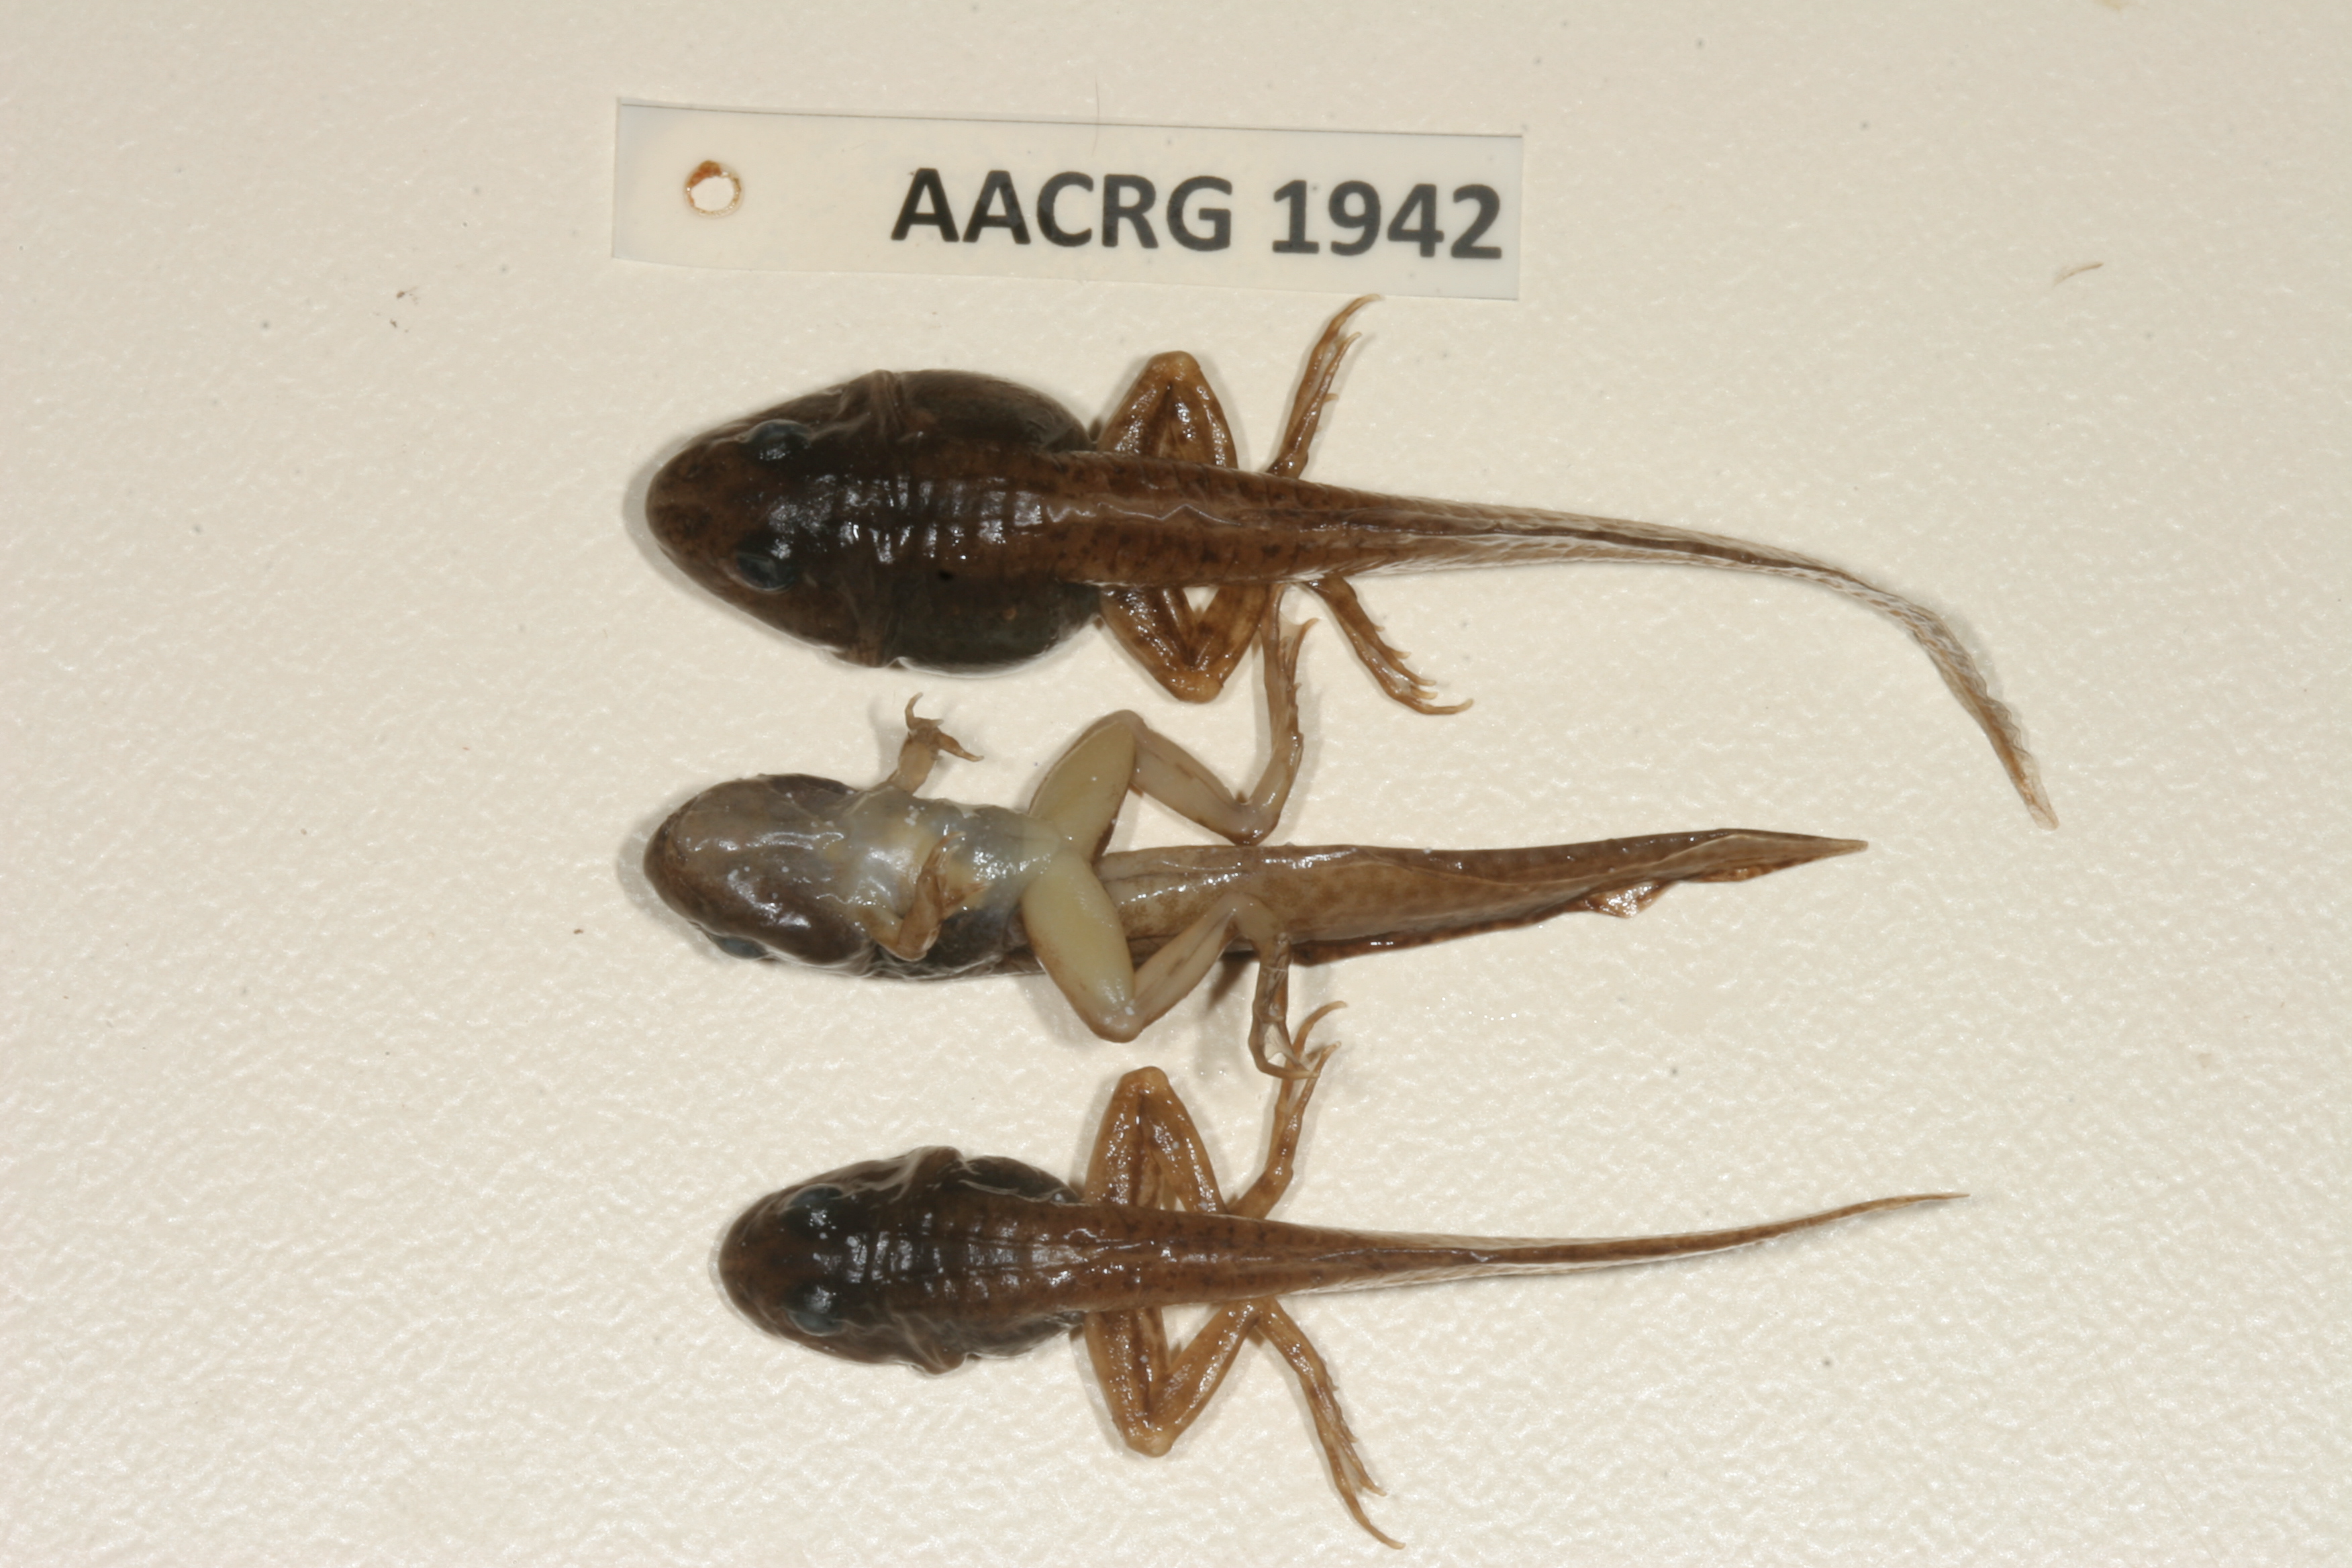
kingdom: Animalia
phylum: Chordata
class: Amphibia
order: Anura
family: Ptychadenidae
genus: Ptychadena
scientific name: Ptychadena subpunctata
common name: Bocage's grassland frog
